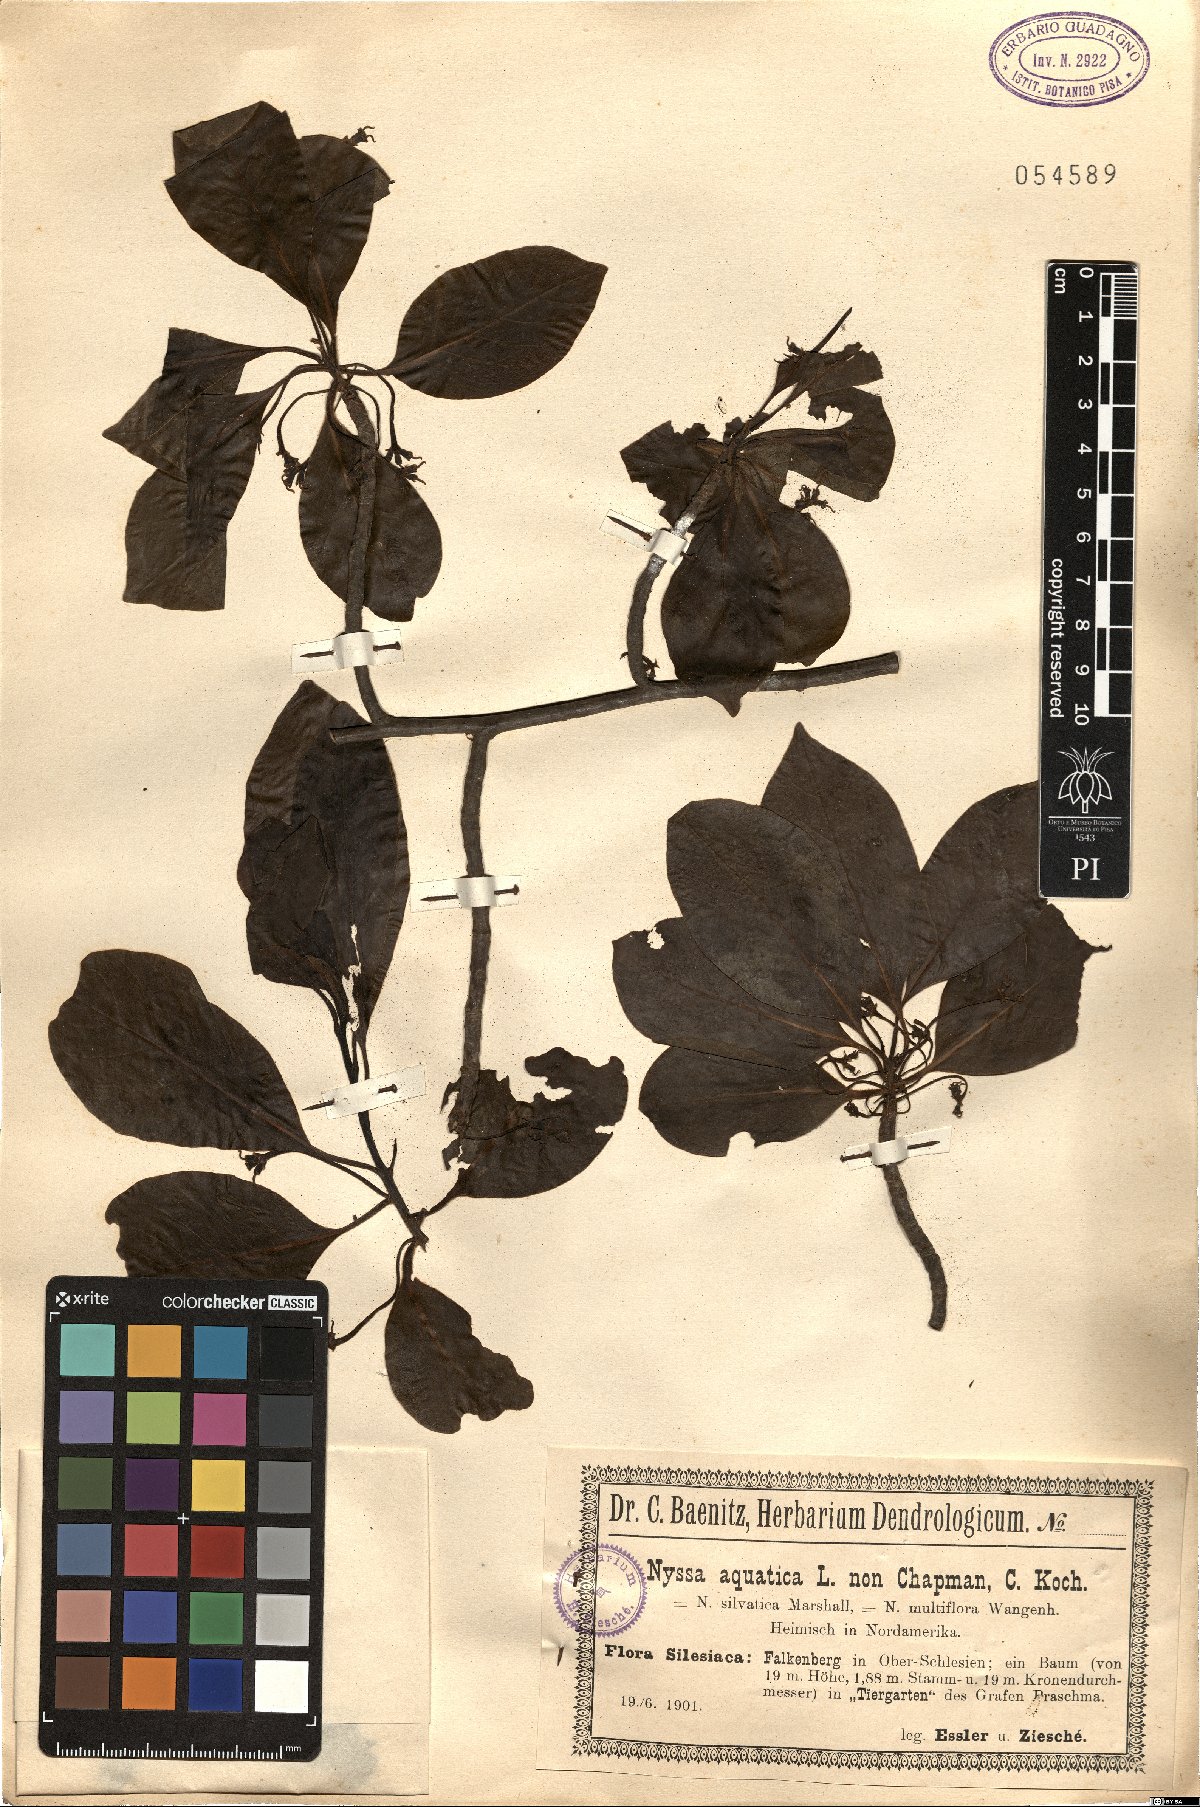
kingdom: Plantae
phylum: Tracheophyta
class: Magnoliopsida
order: Cornales
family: Nyssaceae
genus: Nyssa
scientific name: Nyssa aquatica
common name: Swamp tupelo
